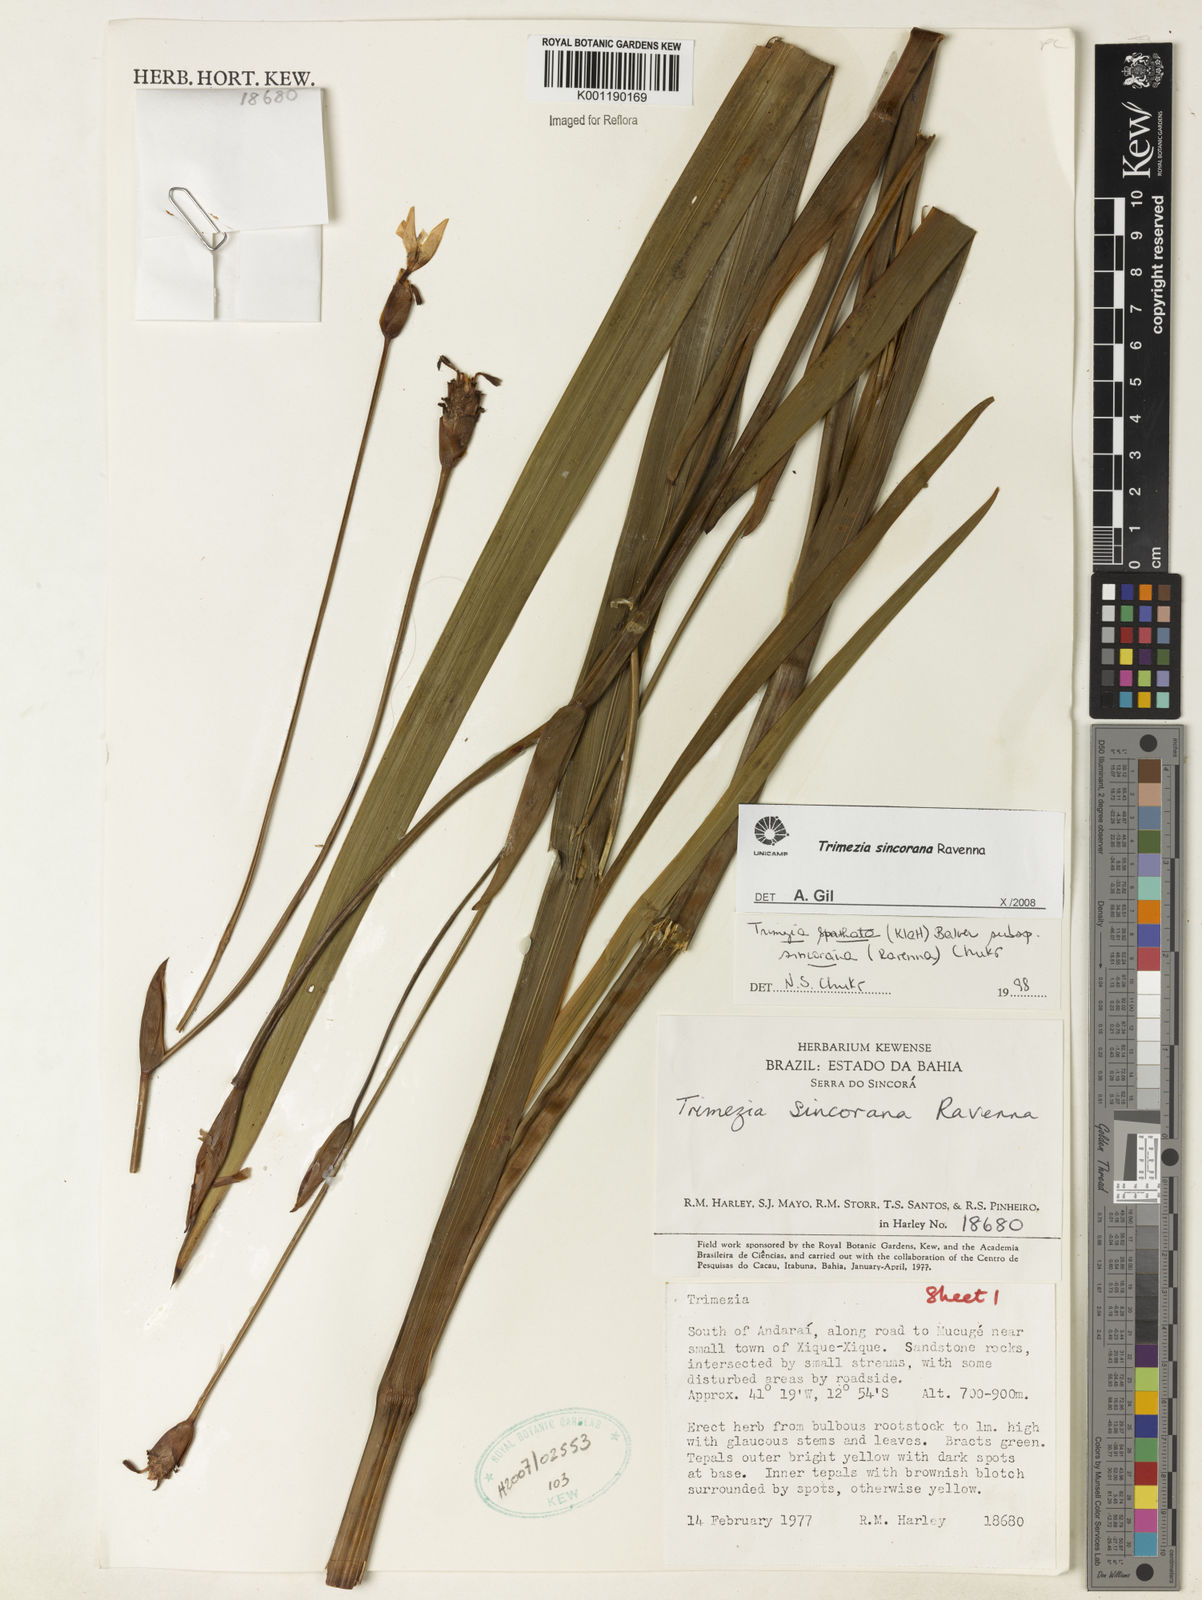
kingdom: Plantae
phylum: Tracheophyta
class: Liliopsida
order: Asparagales
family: Iridaceae
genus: Trimezia
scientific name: Trimezia spathata
